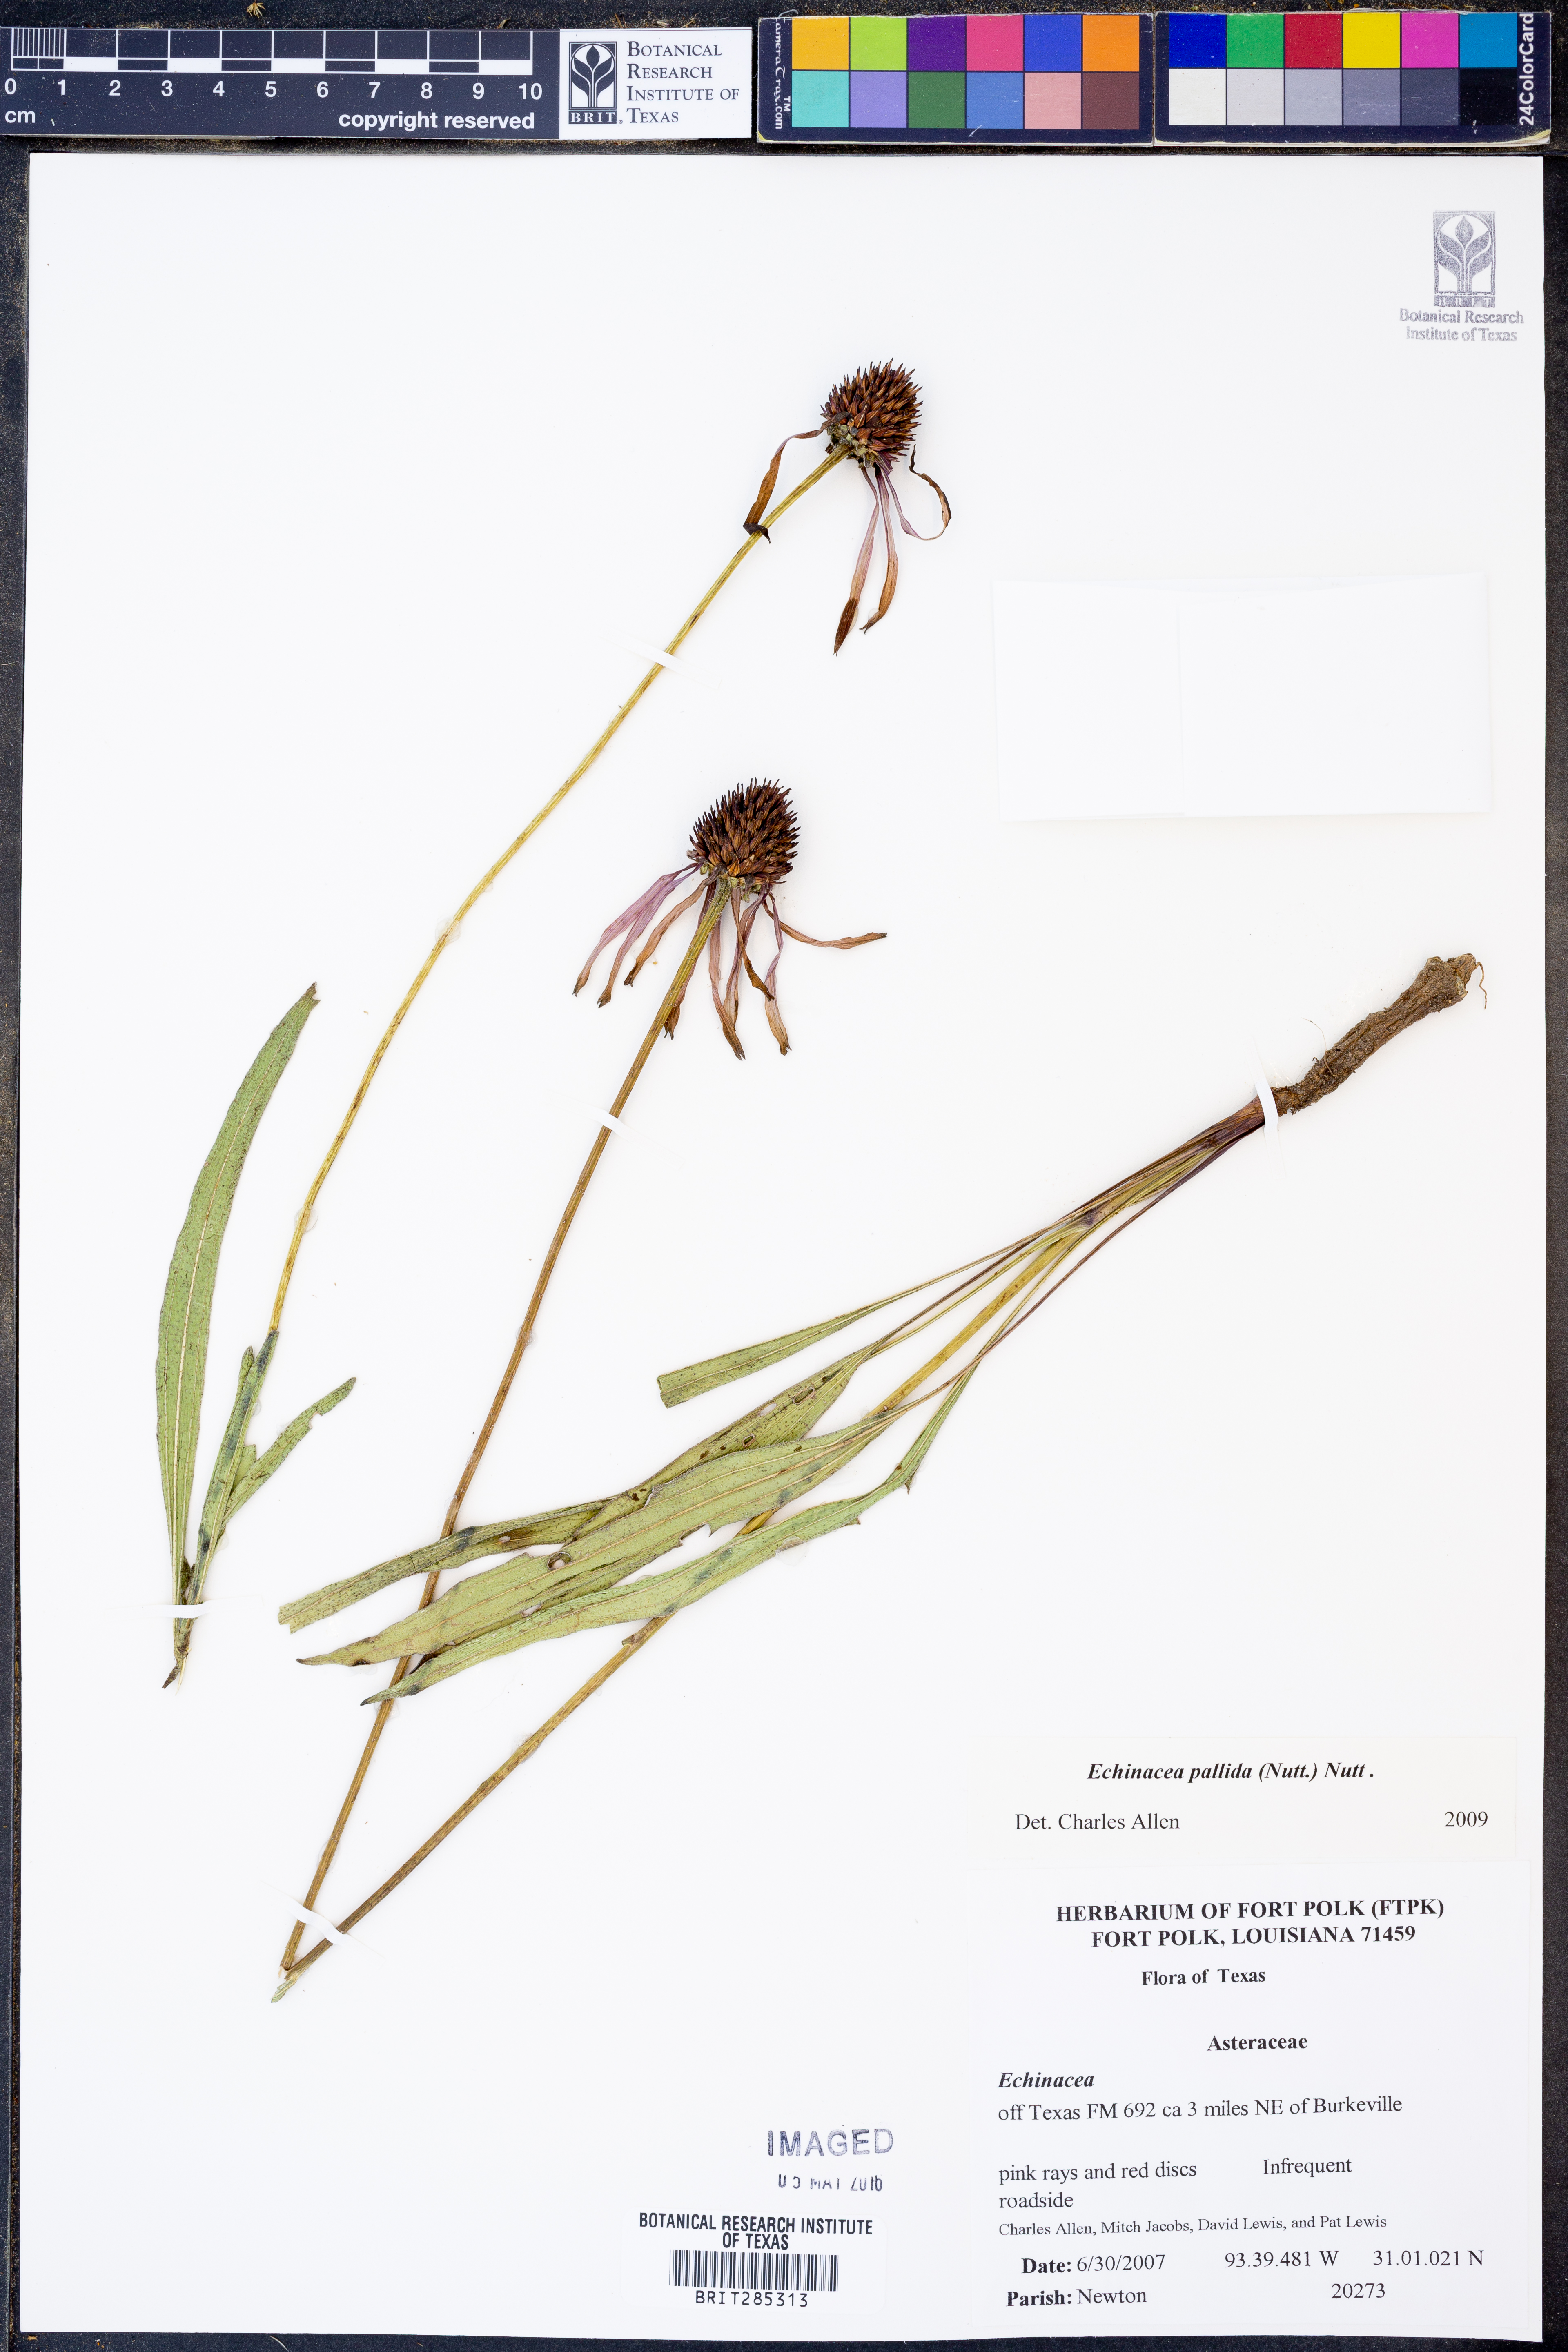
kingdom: Plantae
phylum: Tracheophyta
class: Magnoliopsida
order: Asterales
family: Asteraceae
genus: Echinacea
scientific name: Echinacea pallida
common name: Pale echinacea
